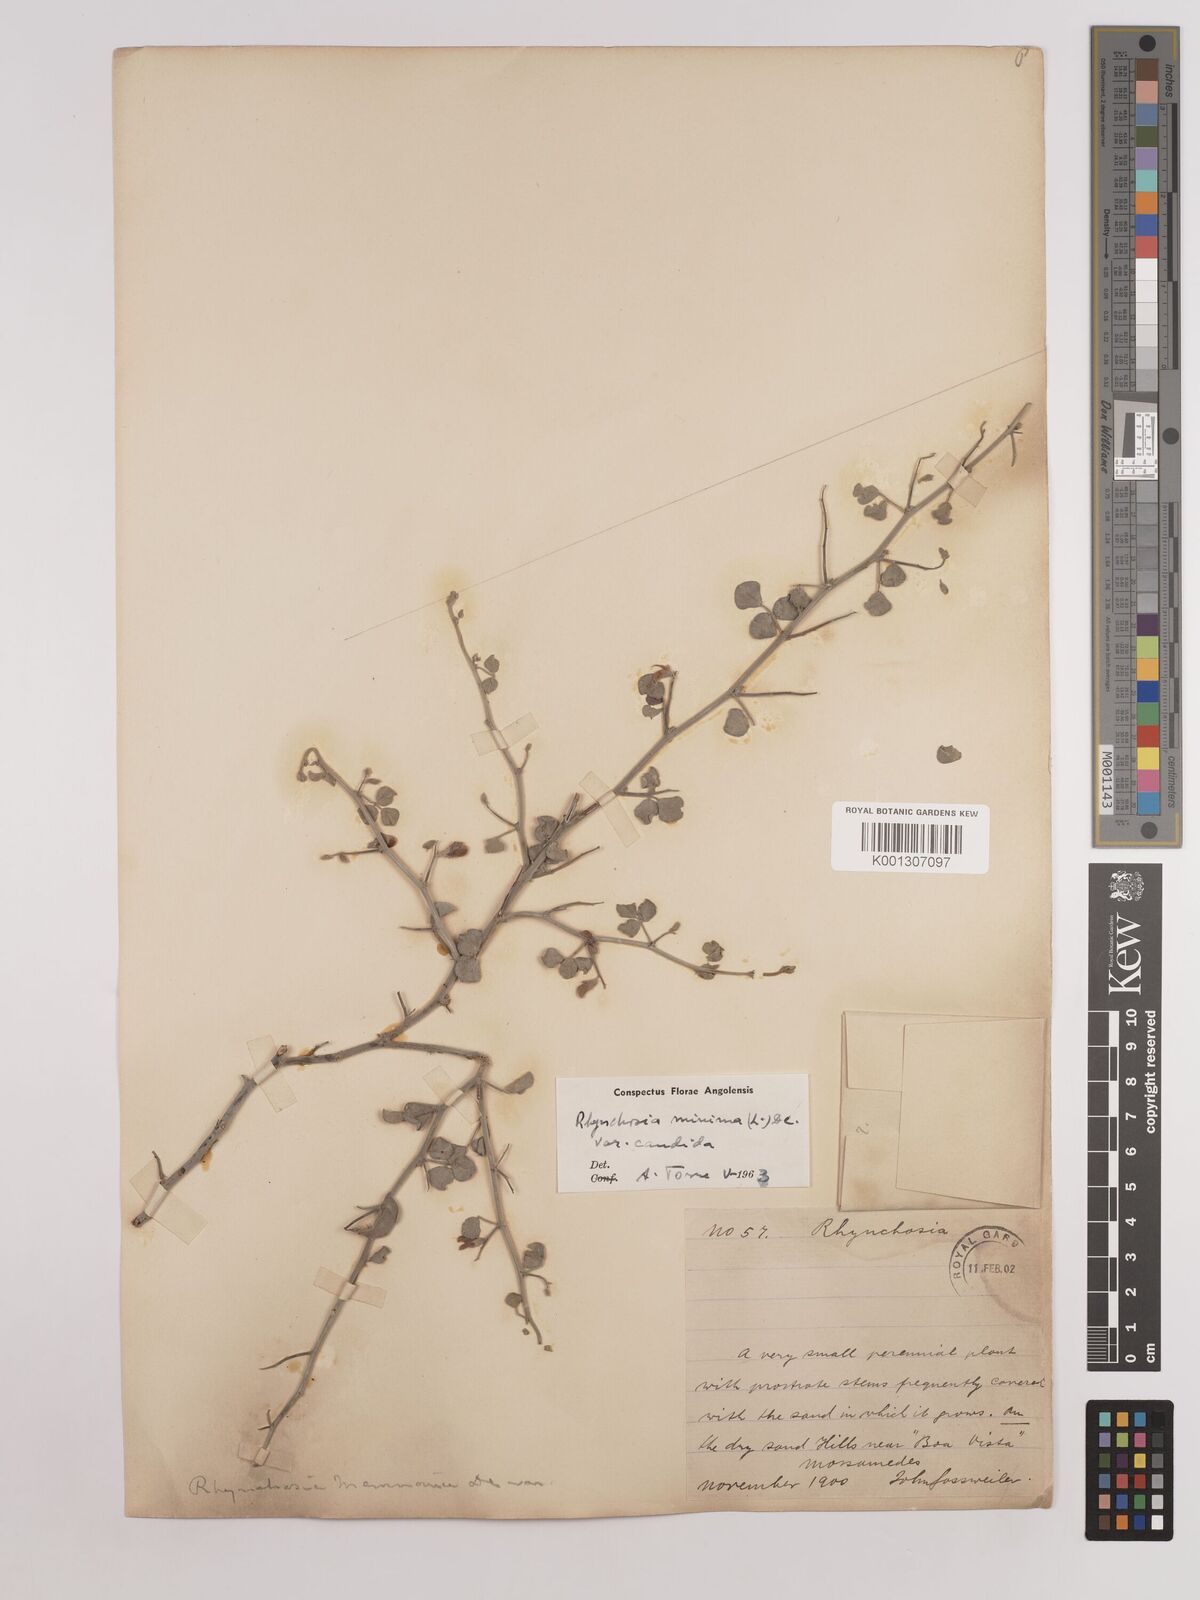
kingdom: Plantae
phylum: Tracheophyta
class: Magnoliopsida
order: Fabales
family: Fabaceae
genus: Rhynchosia
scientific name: Rhynchosia candida
